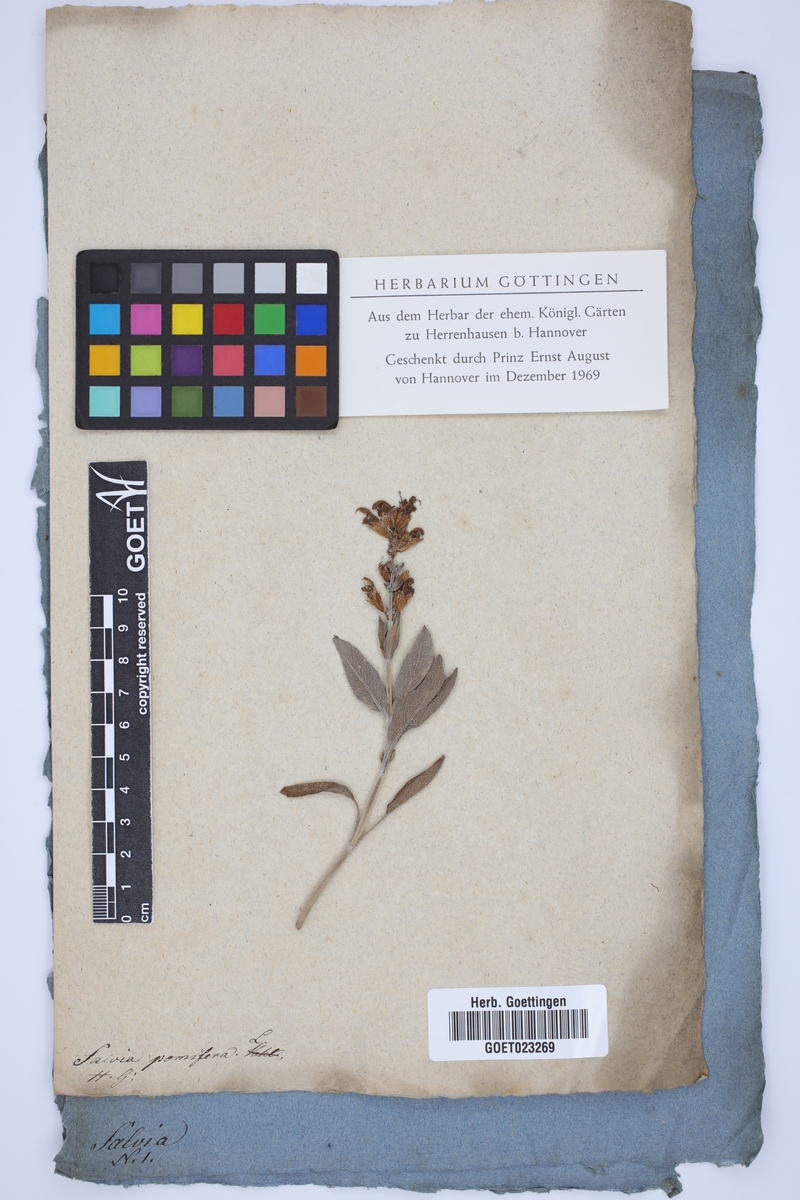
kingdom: Plantae
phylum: Tracheophyta
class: Magnoliopsida
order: Lamiales
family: Lamiaceae
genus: Salvia
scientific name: Salvia pomifera
